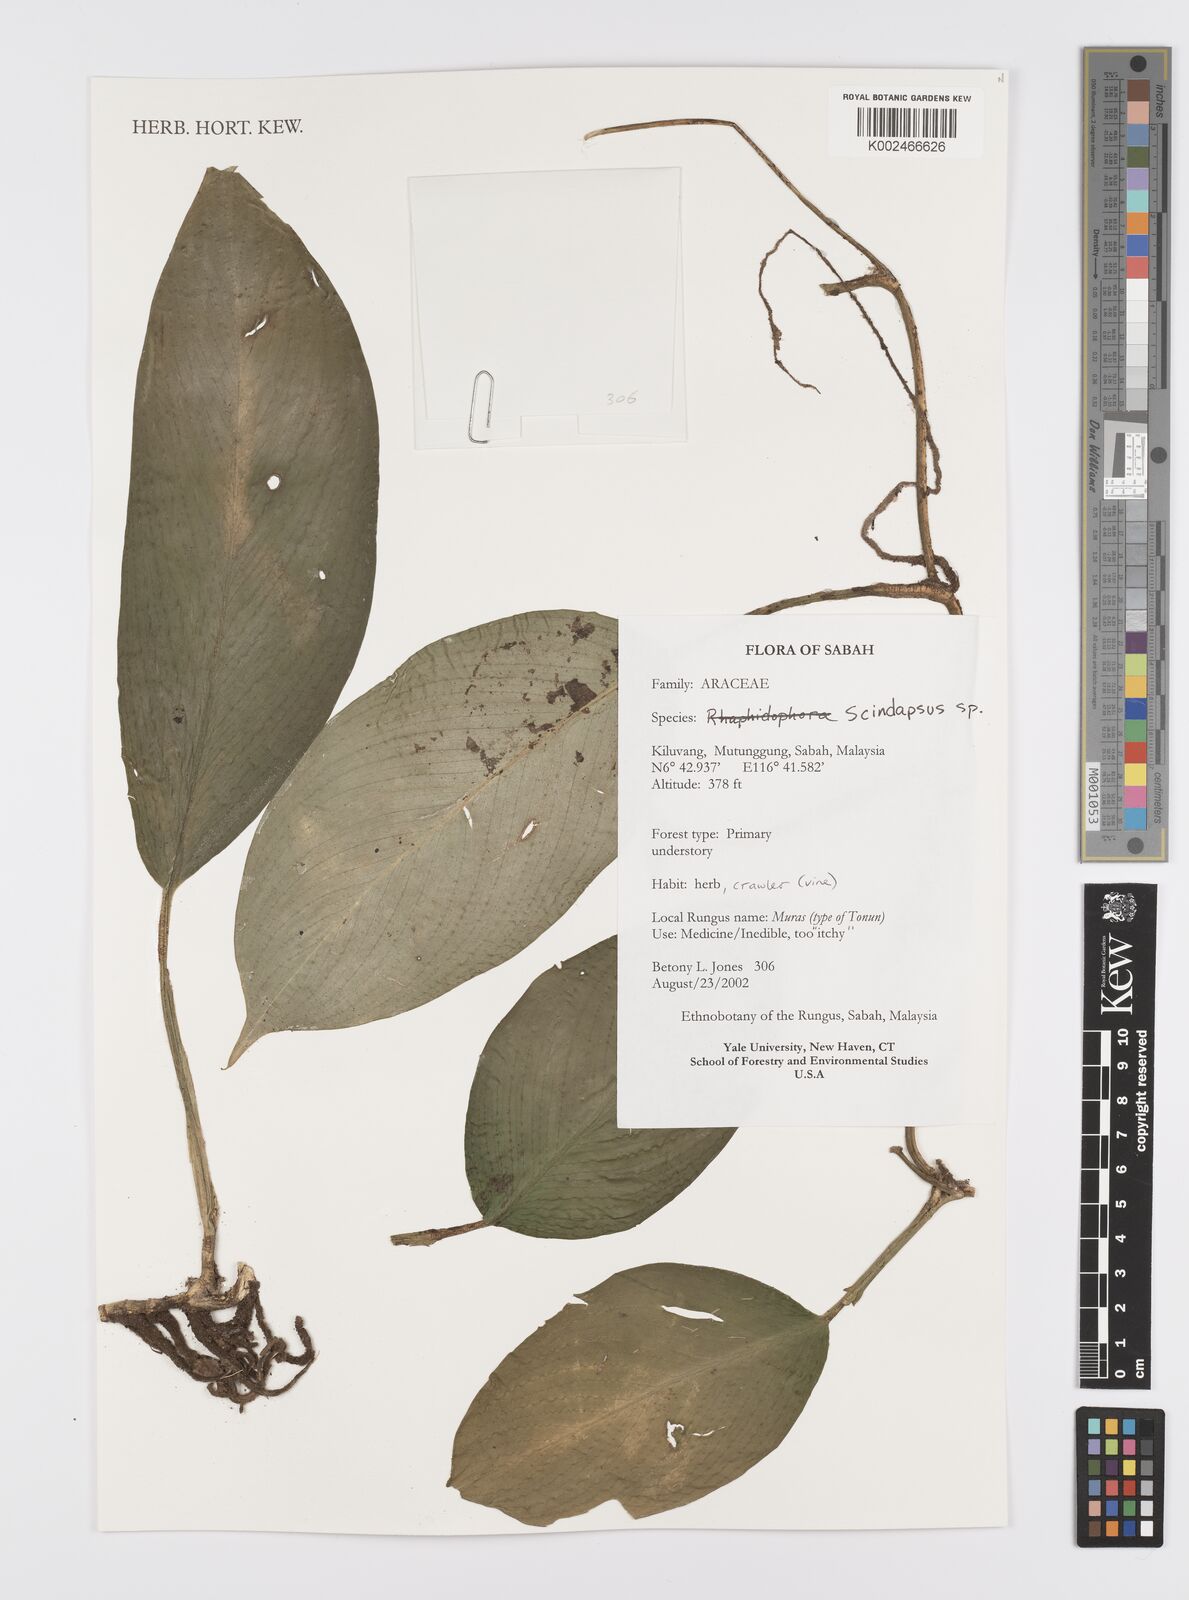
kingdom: Plantae
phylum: Tracheophyta
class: Liliopsida
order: Alismatales
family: Araceae
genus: Scindapsus
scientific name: Scindapsus
